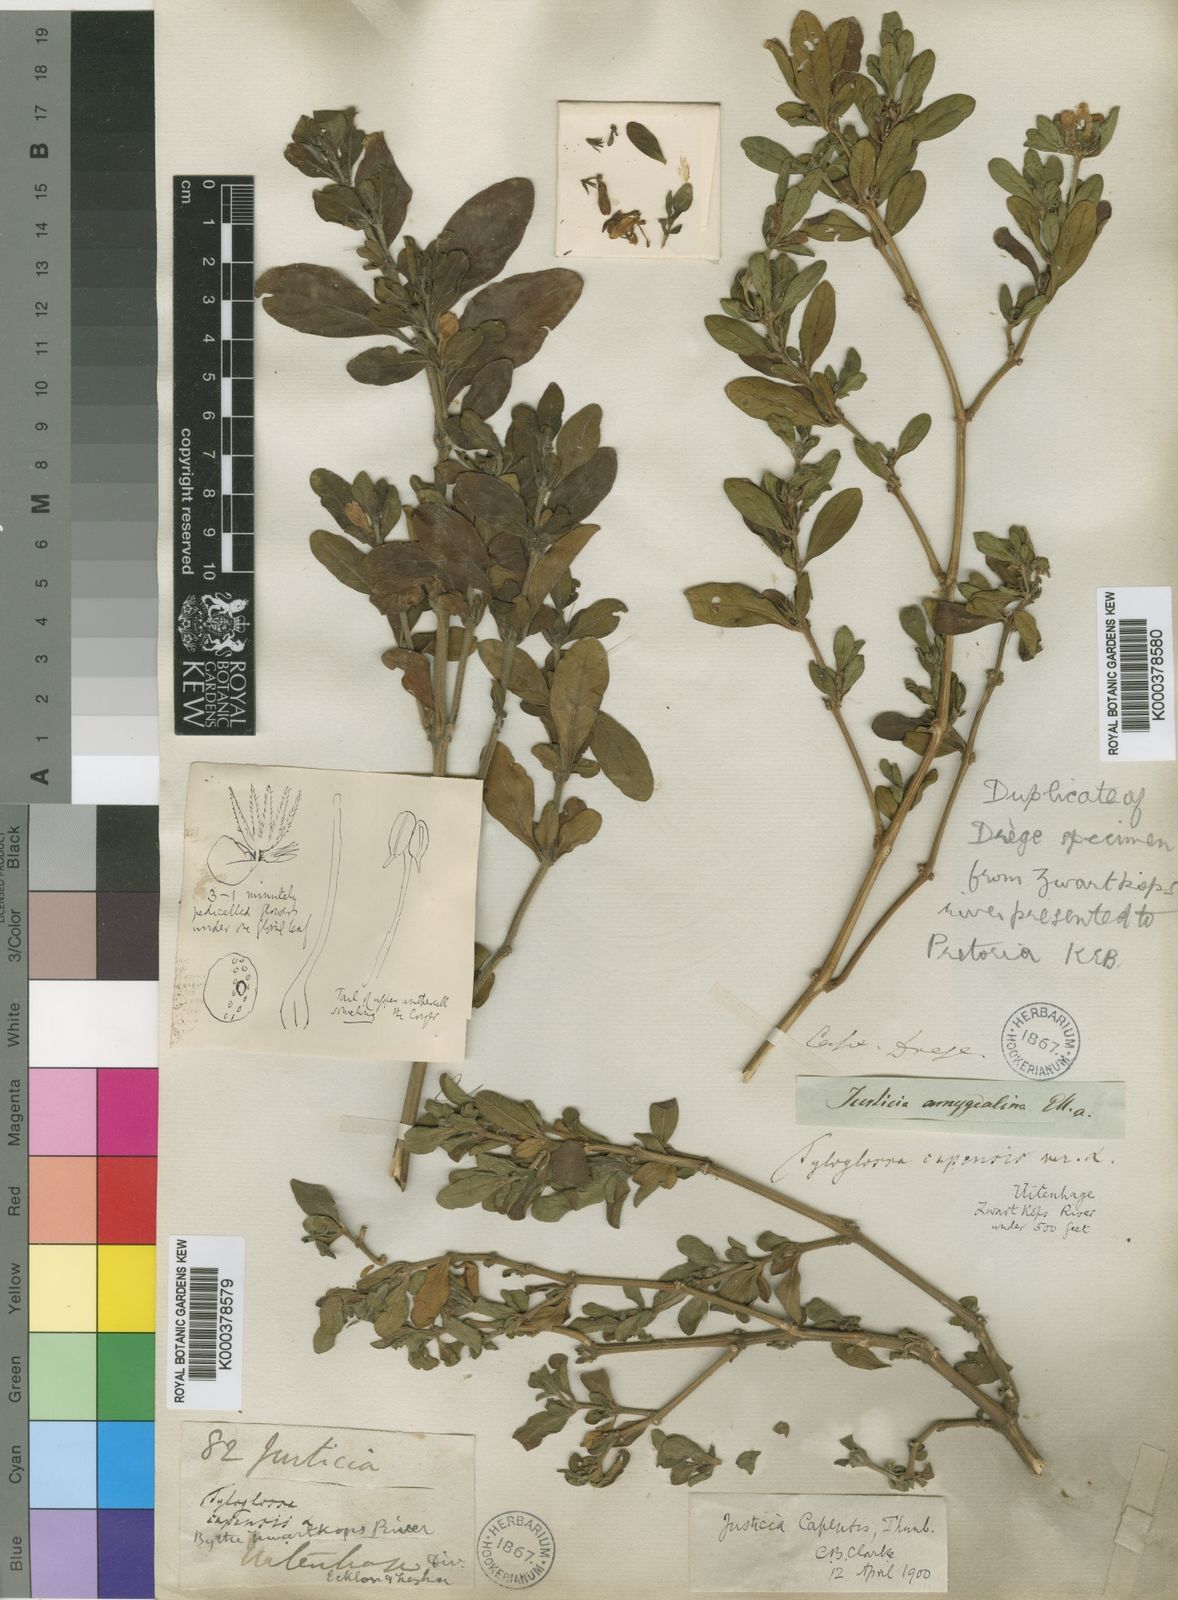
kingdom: Plantae
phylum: Tracheophyta
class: Magnoliopsida
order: Lamiales
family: Acanthaceae
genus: Justicia
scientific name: Justicia capensis
